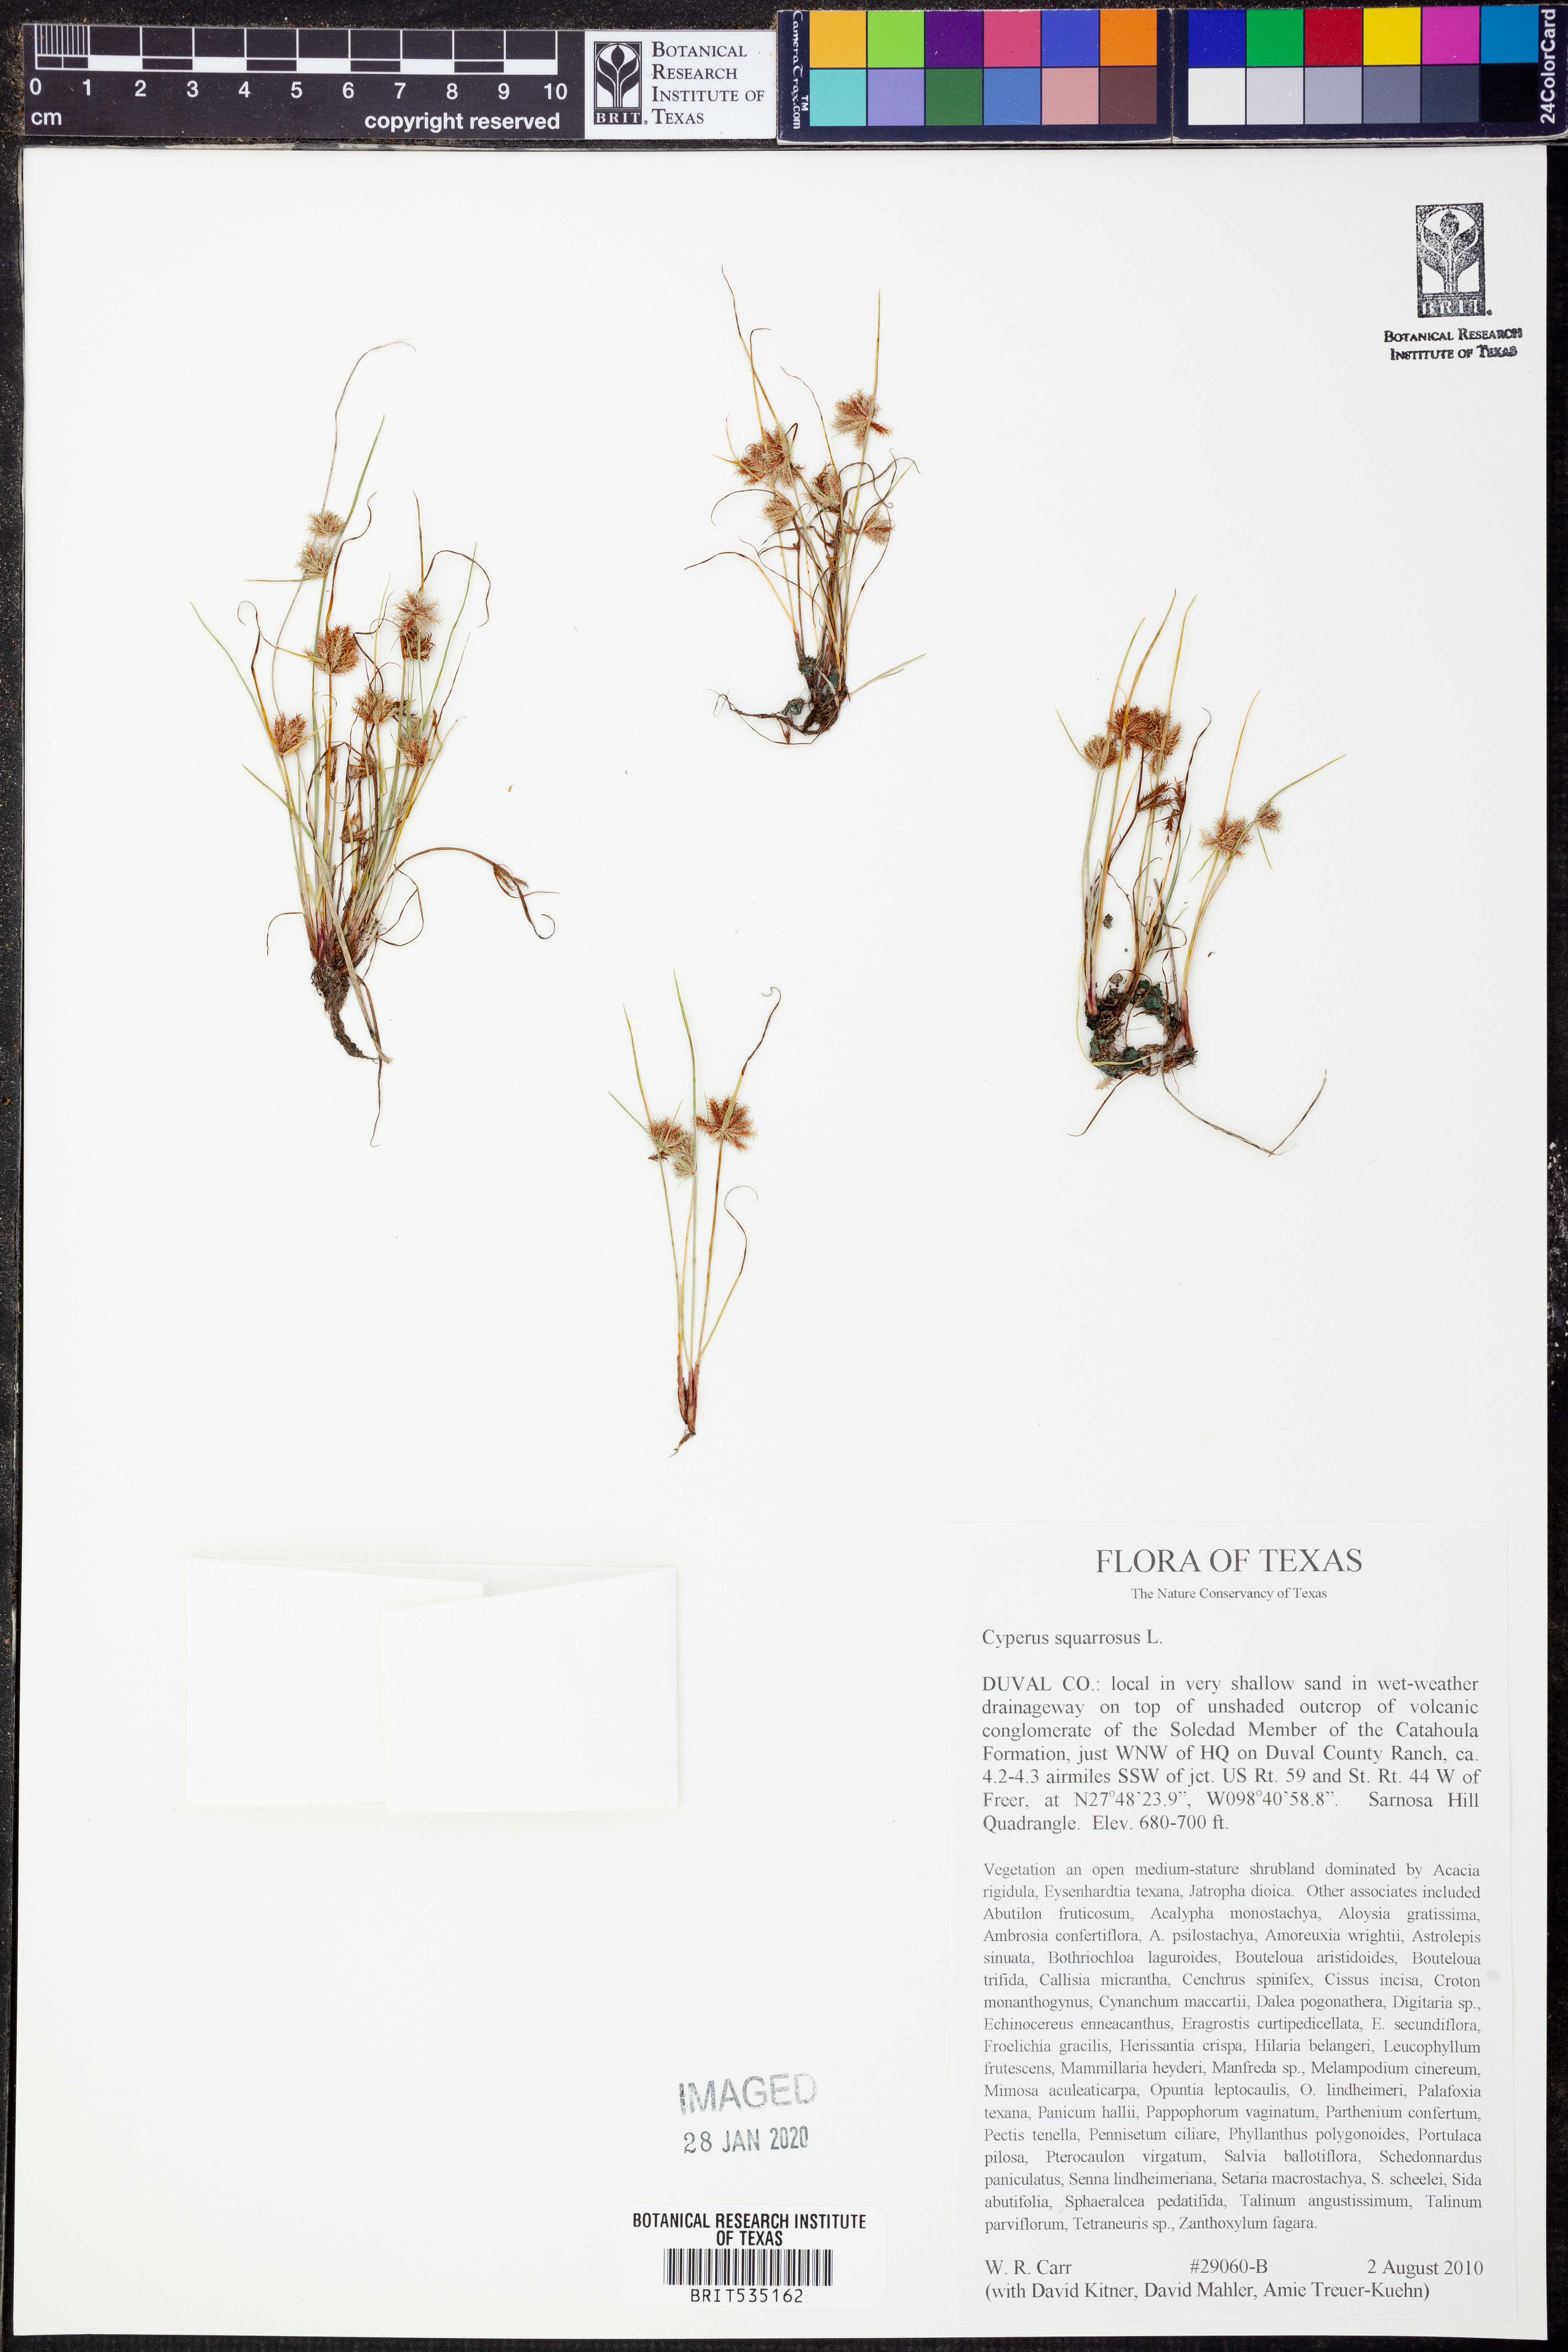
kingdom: Plantae
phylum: Tracheophyta
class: Liliopsida
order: Poales
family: Cyperaceae
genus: Cyperus
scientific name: Cyperus squarrosus
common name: Awned cyperus
